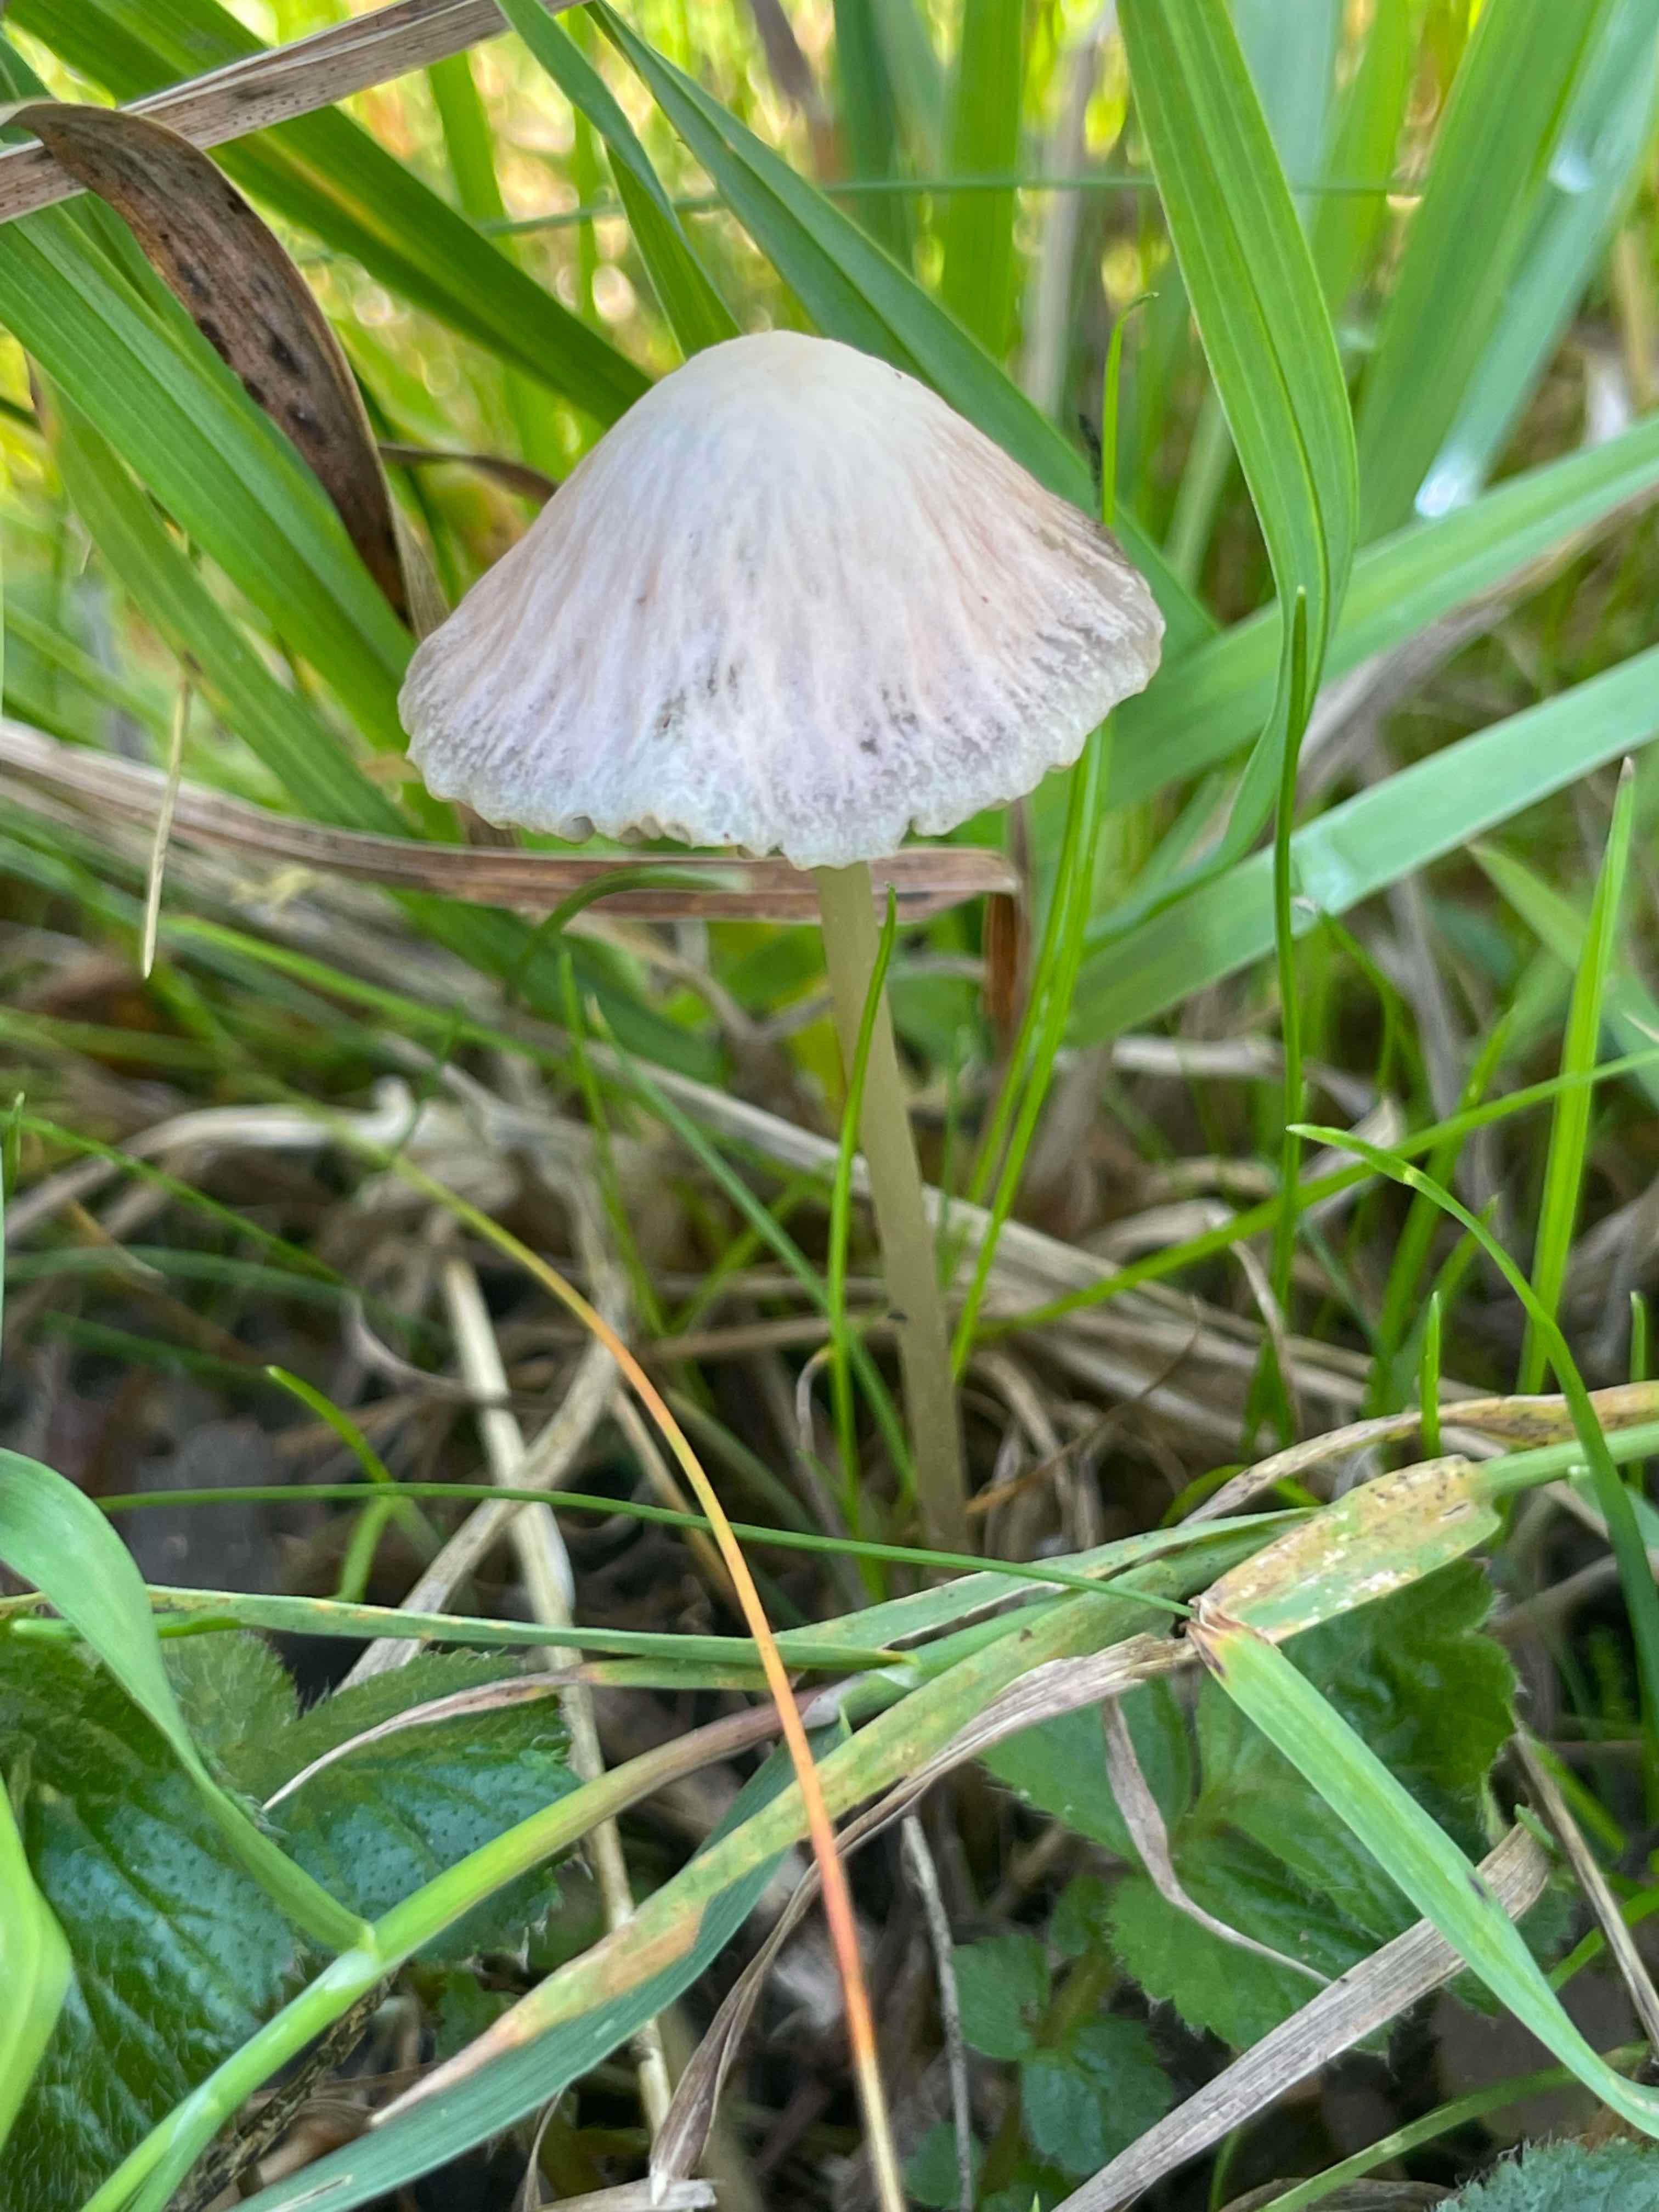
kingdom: Fungi
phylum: Basidiomycota
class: Agaricomycetes
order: Agaricales
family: Psathyrellaceae
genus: Psathyrella
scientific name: Psathyrella
